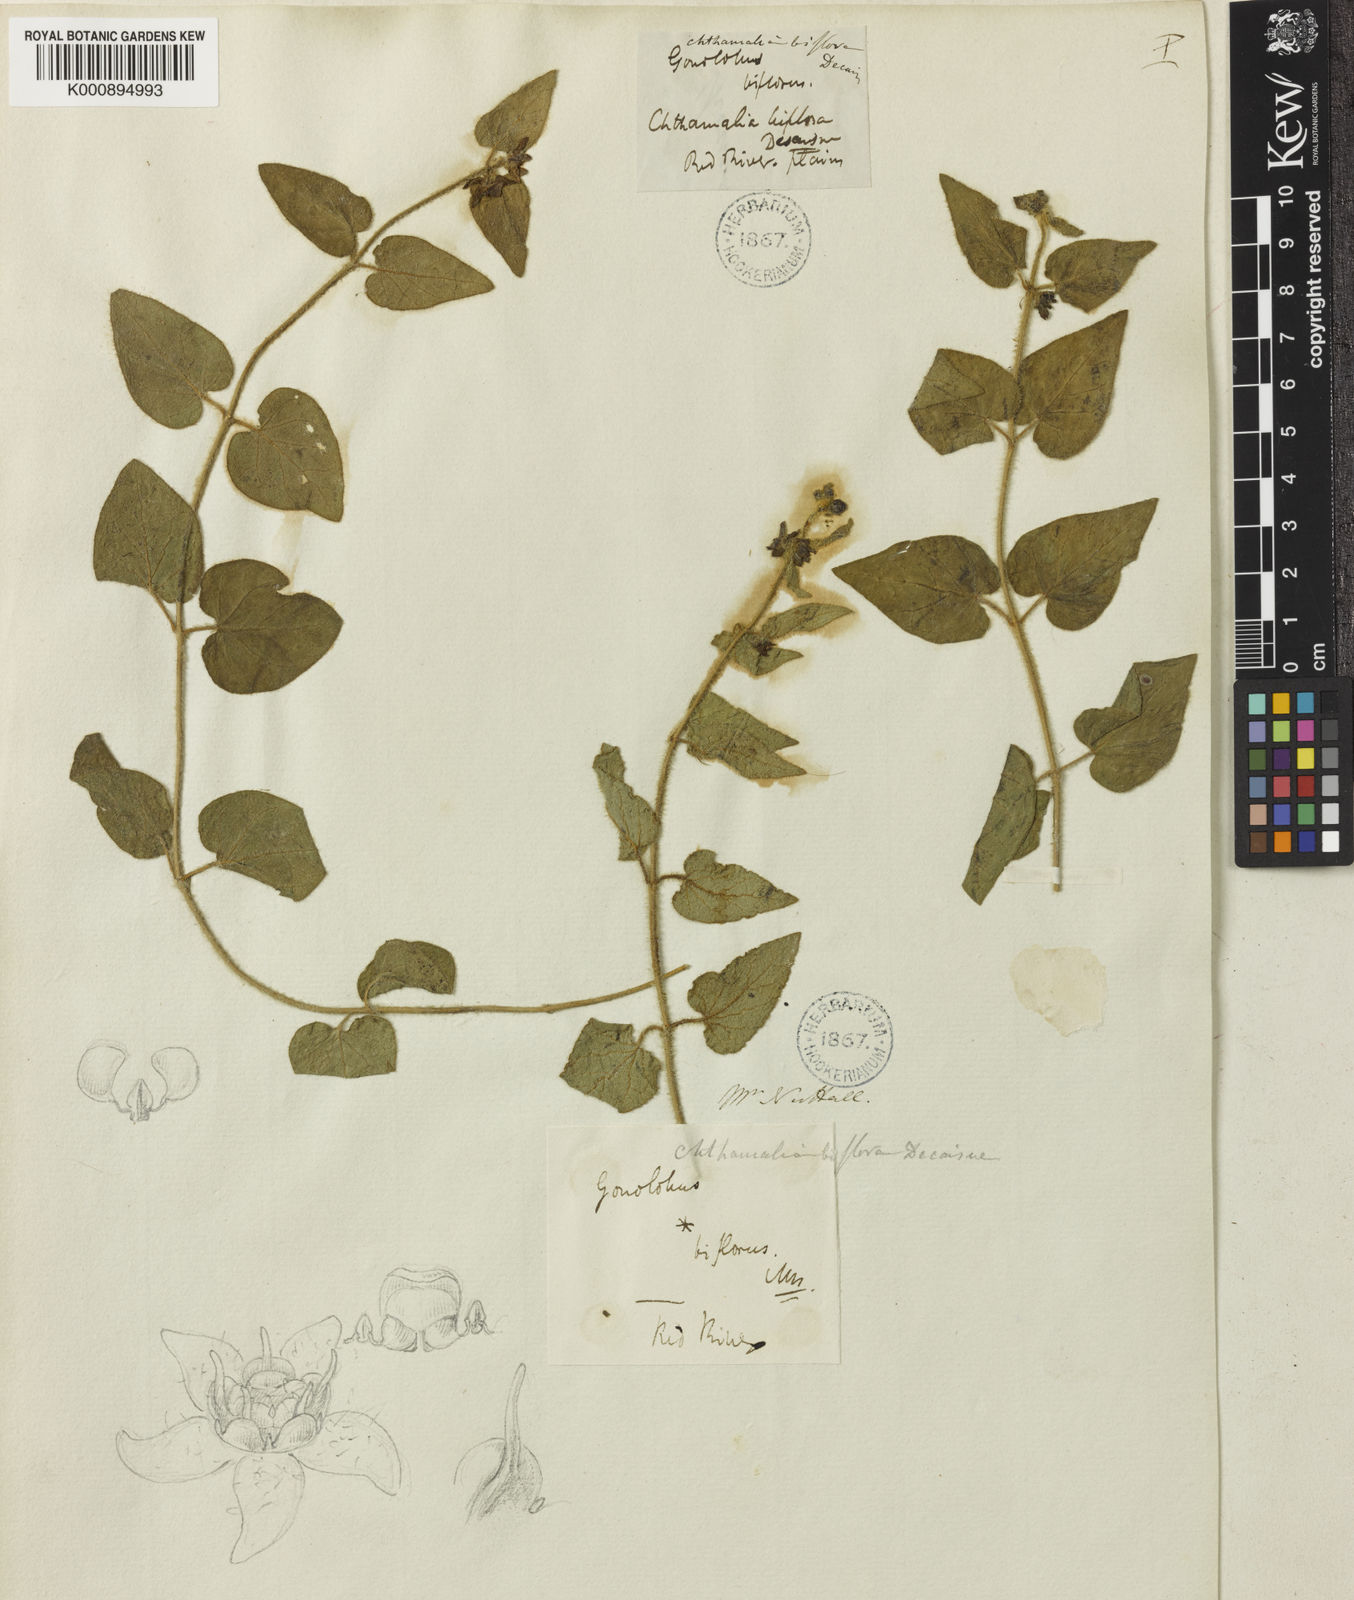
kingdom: Plantae
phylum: Tracheophyta
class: Magnoliopsida
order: Gentianales
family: Apocynaceae
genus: Chthamalia
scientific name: Chthamalia biflora
